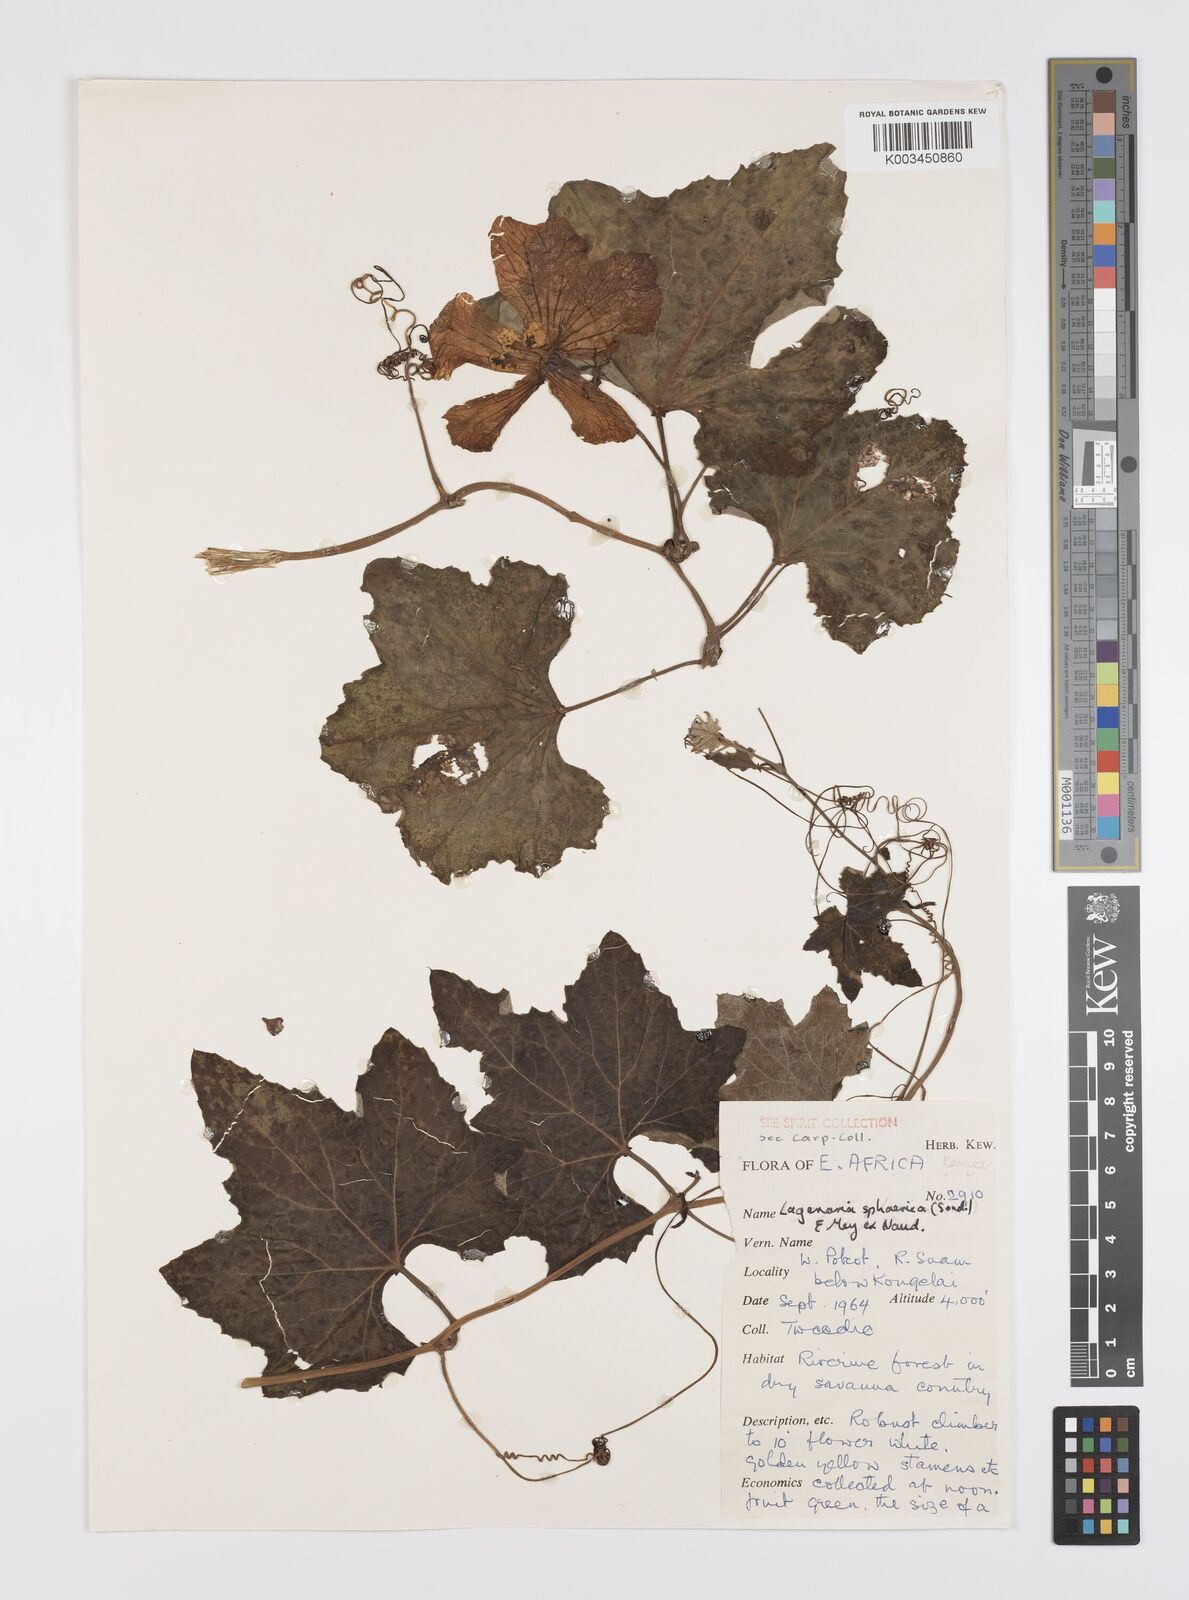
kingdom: Plantae
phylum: Tracheophyta
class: Magnoliopsida
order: Cucurbitales
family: Cucurbitaceae
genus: Lagenaria
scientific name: Lagenaria sphaerica
